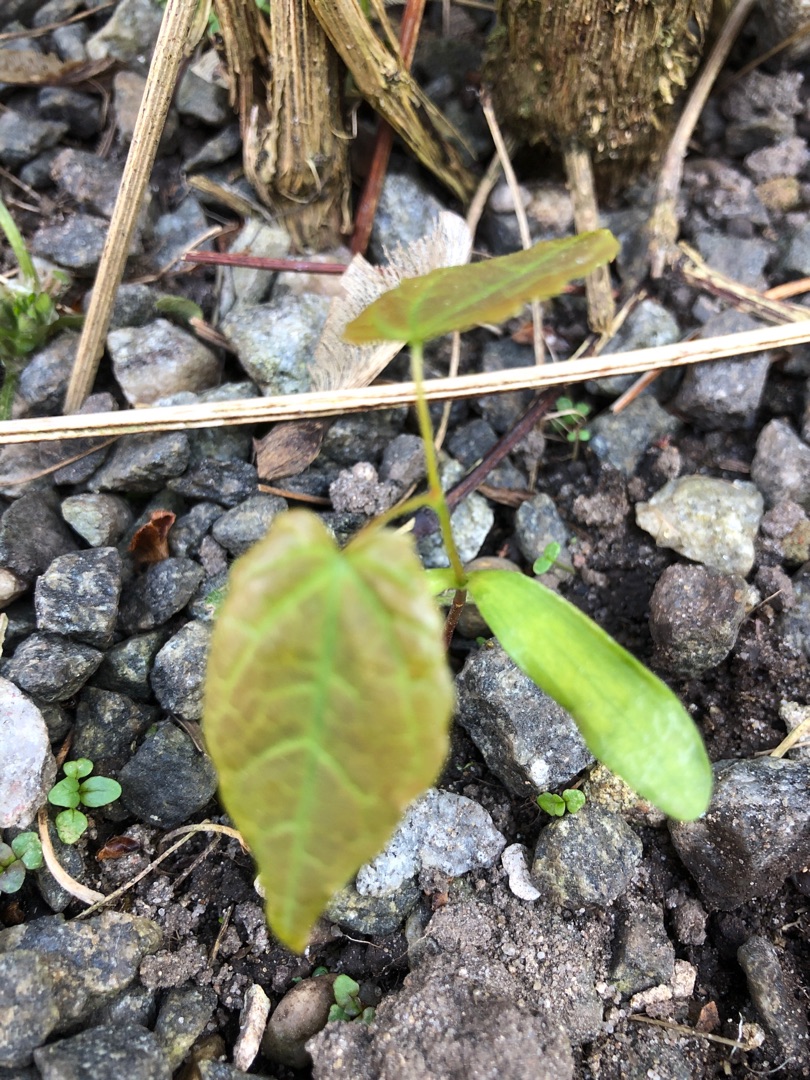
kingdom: Plantae
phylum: Tracheophyta
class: Magnoliopsida
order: Sapindales
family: Sapindaceae
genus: Acer
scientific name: Acer pseudoplatanus
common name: Ahorn
